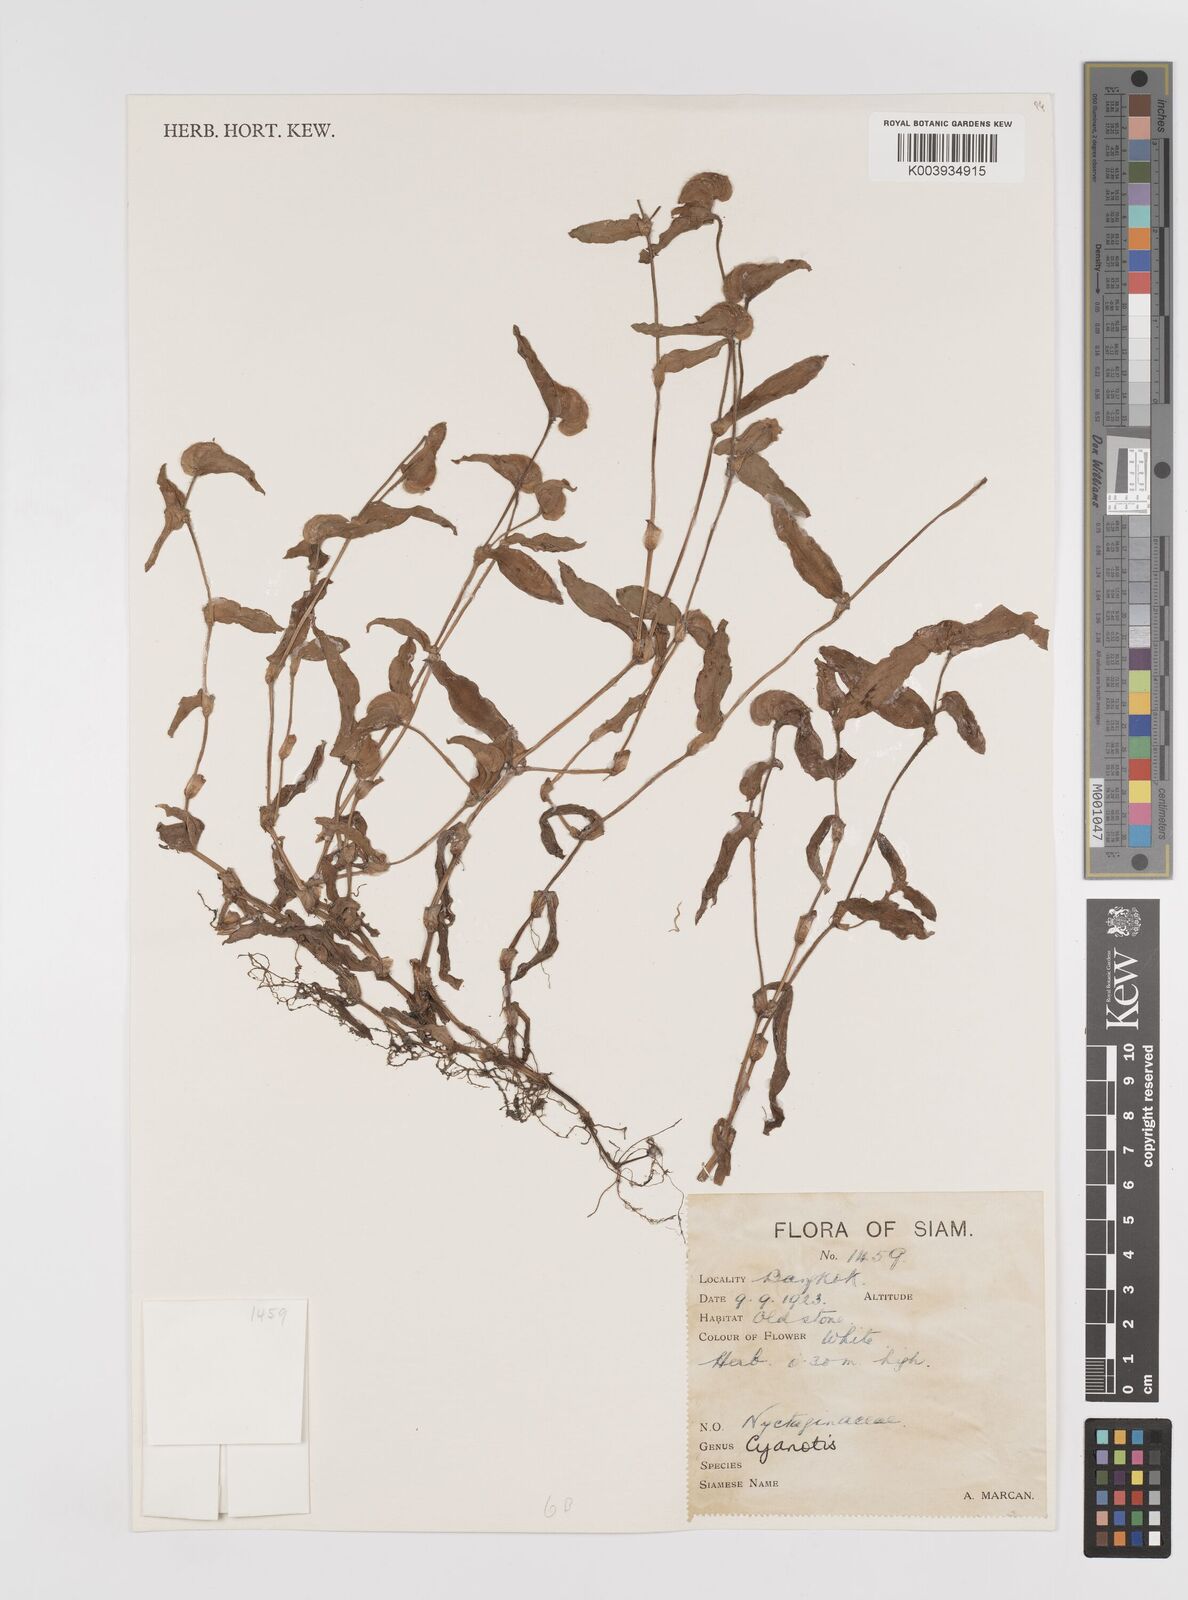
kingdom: Plantae
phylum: Tracheophyta
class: Liliopsida
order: Commelinales
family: Commelinaceae
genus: Cyanotis
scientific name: Cyanotis cristata
